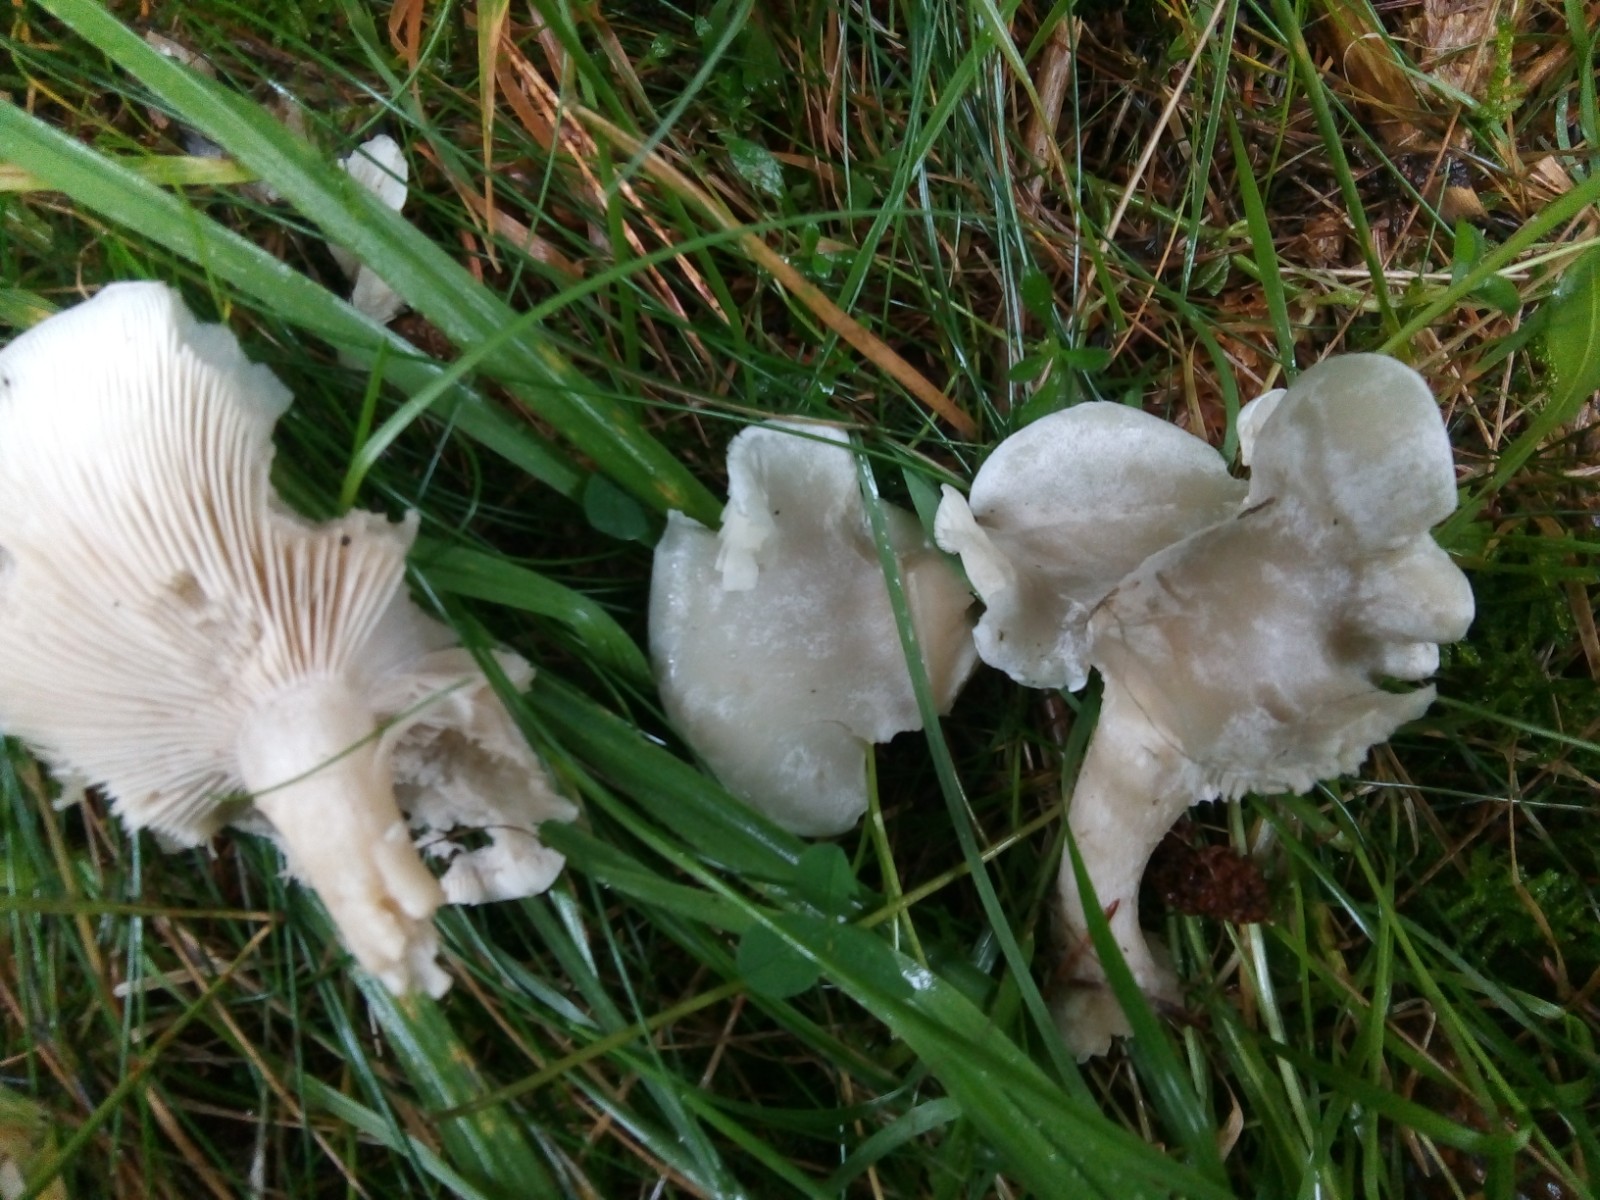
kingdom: Fungi
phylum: Basidiomycota
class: Agaricomycetes
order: Agaricales
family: Tricholomataceae
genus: Clitocybe
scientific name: Clitocybe odora
